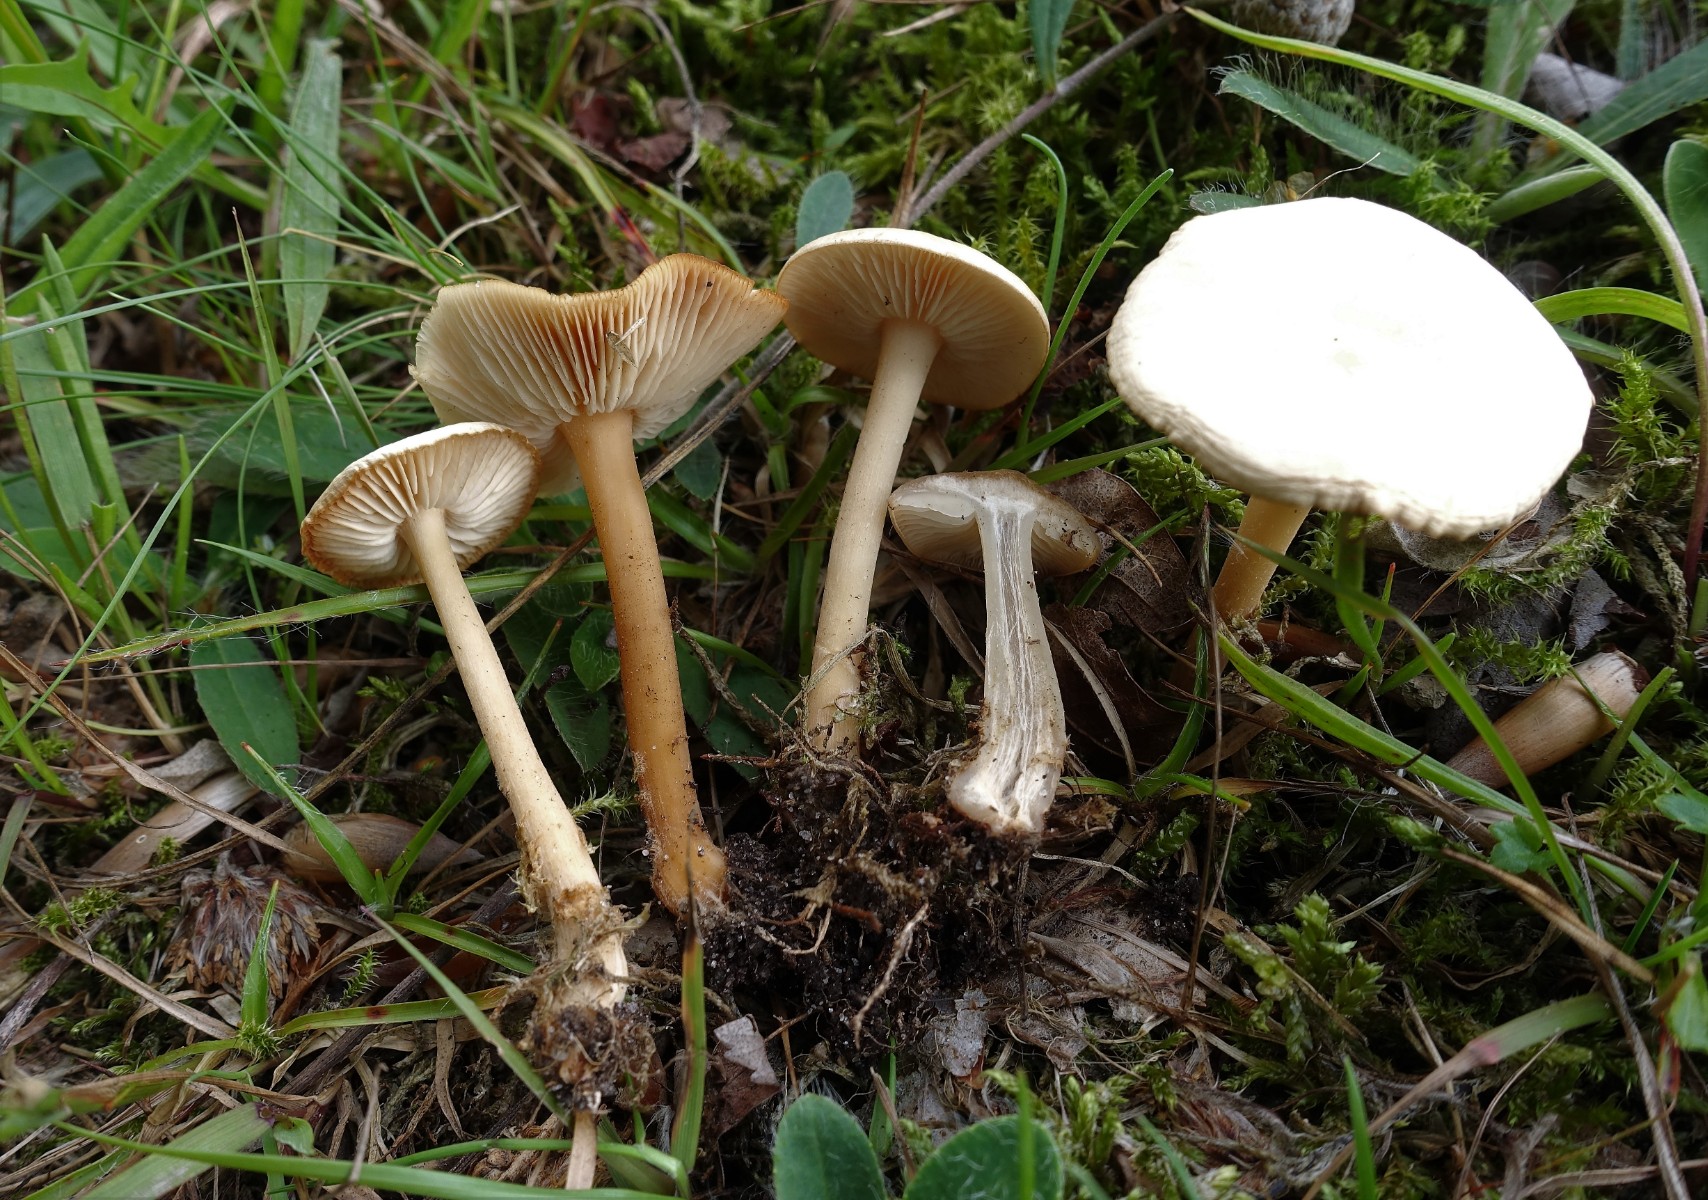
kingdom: Fungi
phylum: Basidiomycota
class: Agaricomycetes
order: Agaricales
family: Omphalotaceae
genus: Gymnopus
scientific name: Gymnopus aquosus
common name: bleg fladhat
